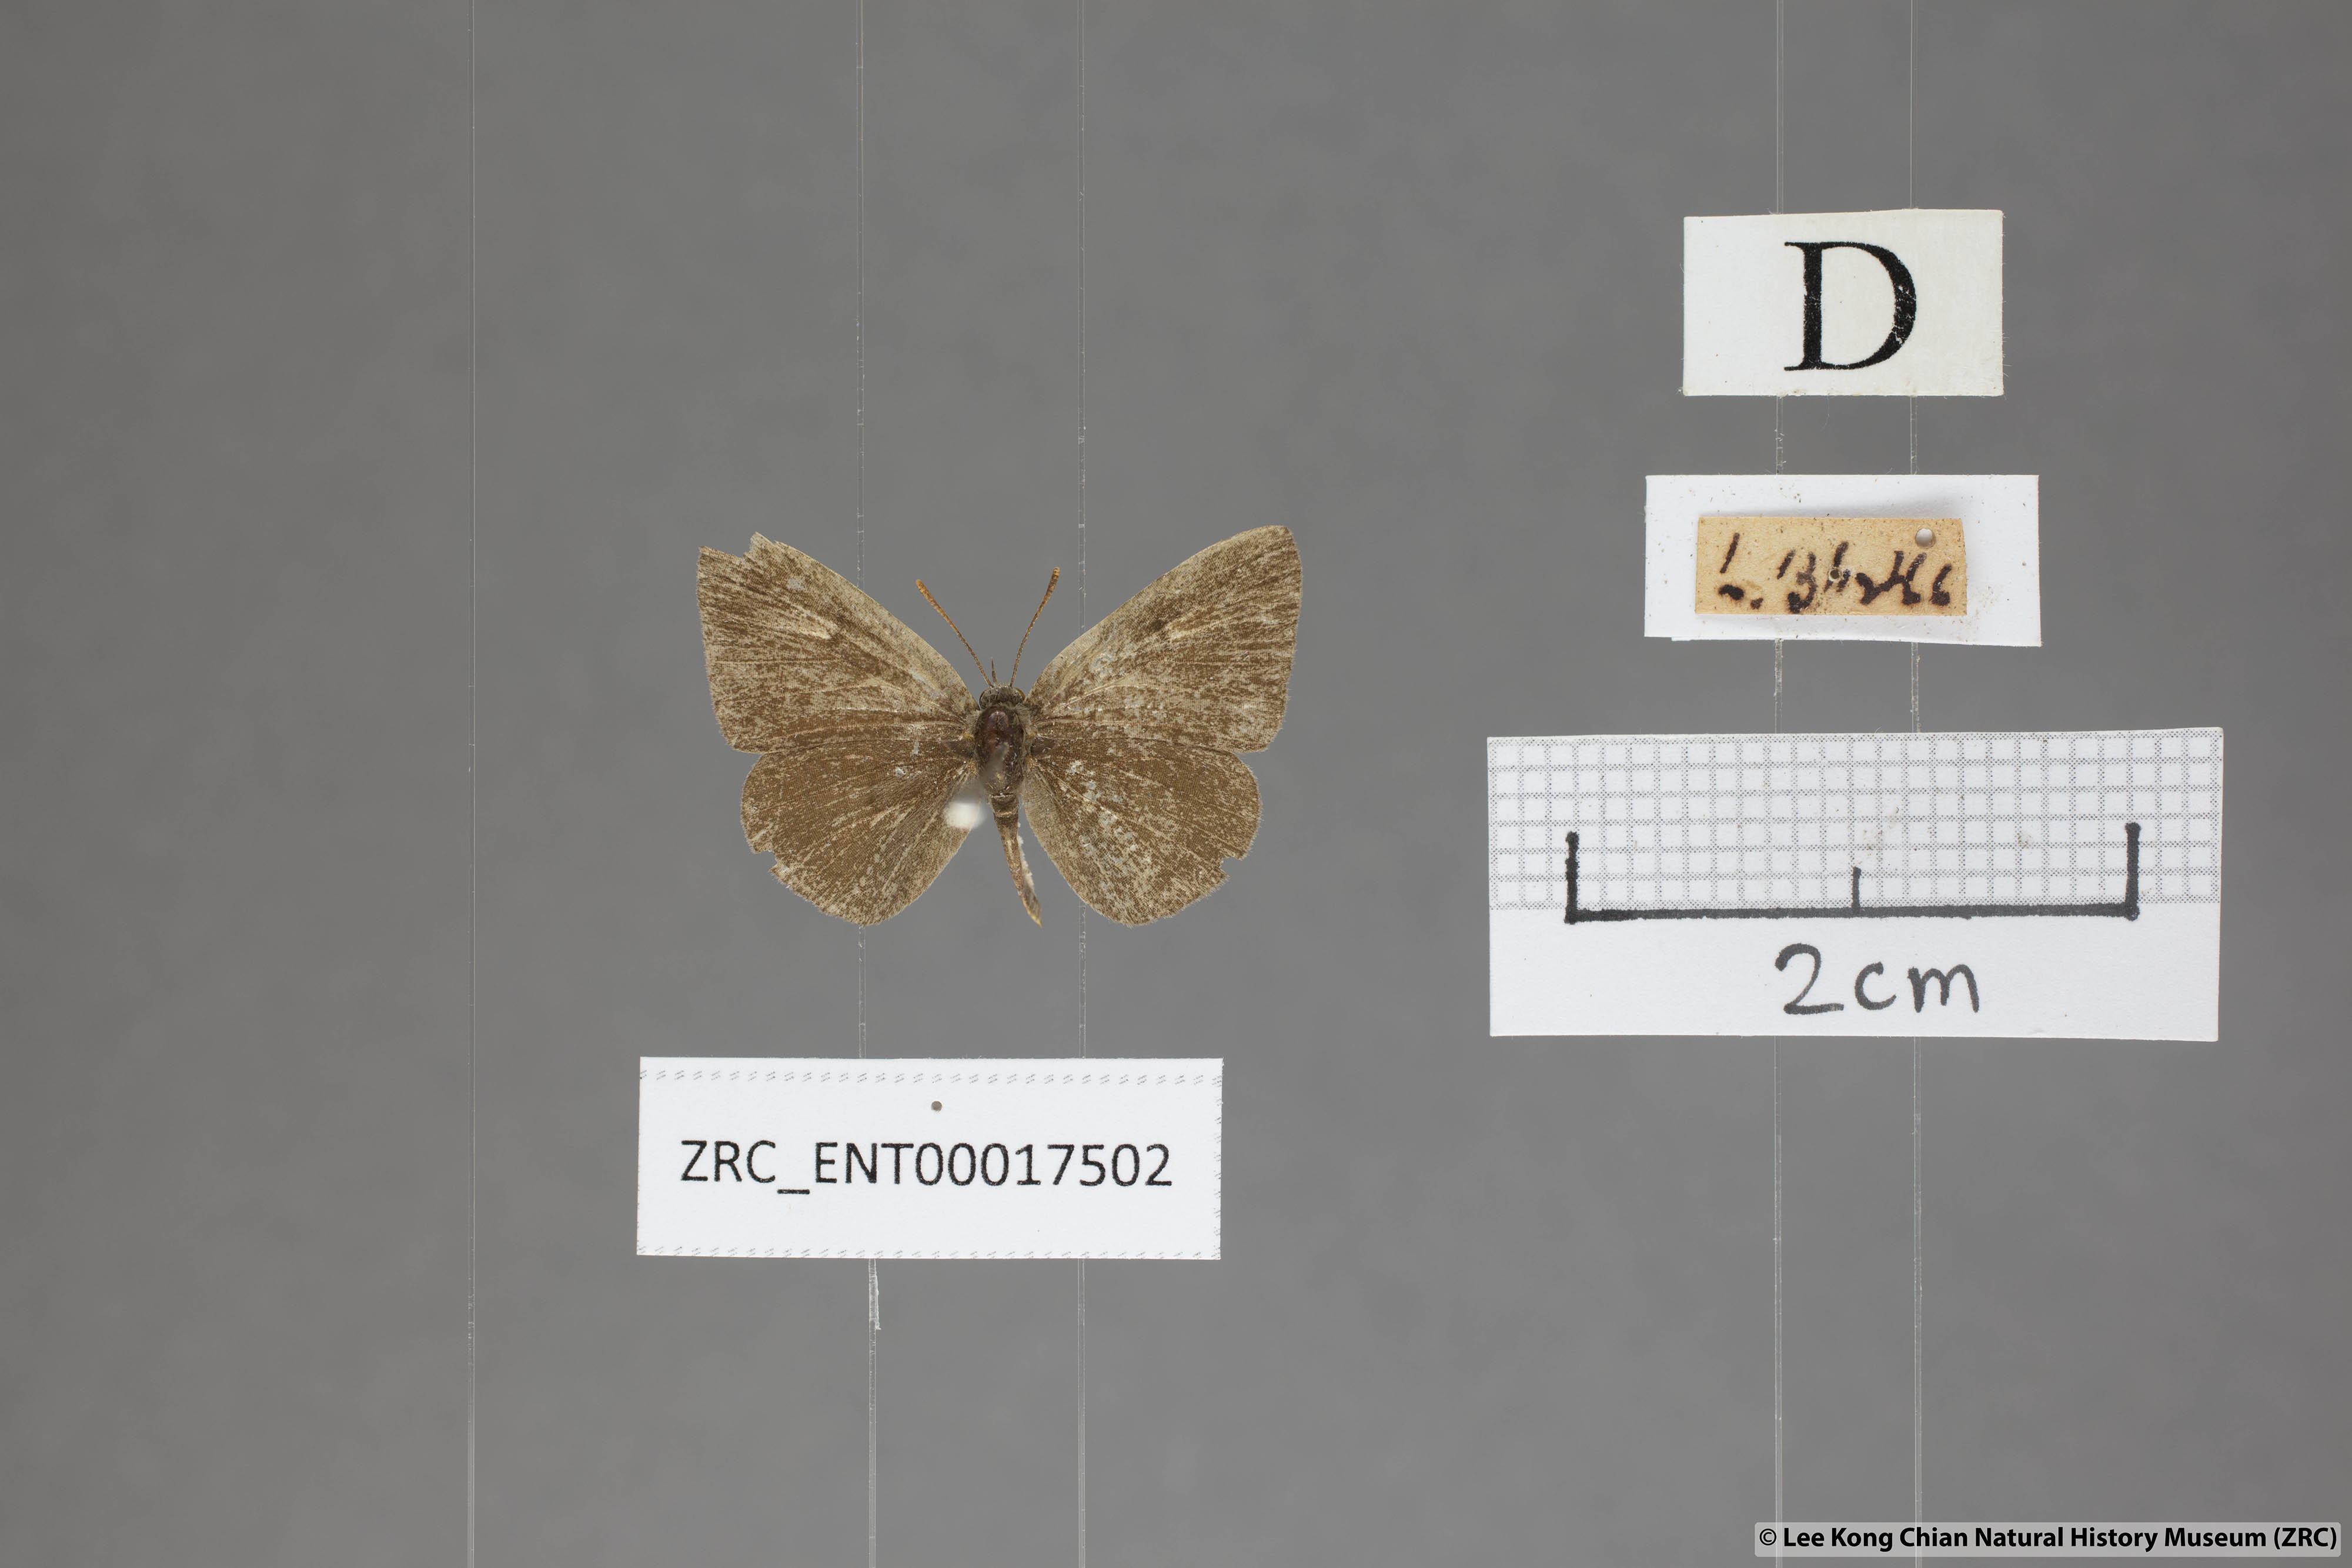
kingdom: Animalia
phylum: Arthropoda
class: Insecta
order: Lepidoptera
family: Lycaenidae
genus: Spalgis
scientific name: Spalgis epeus
